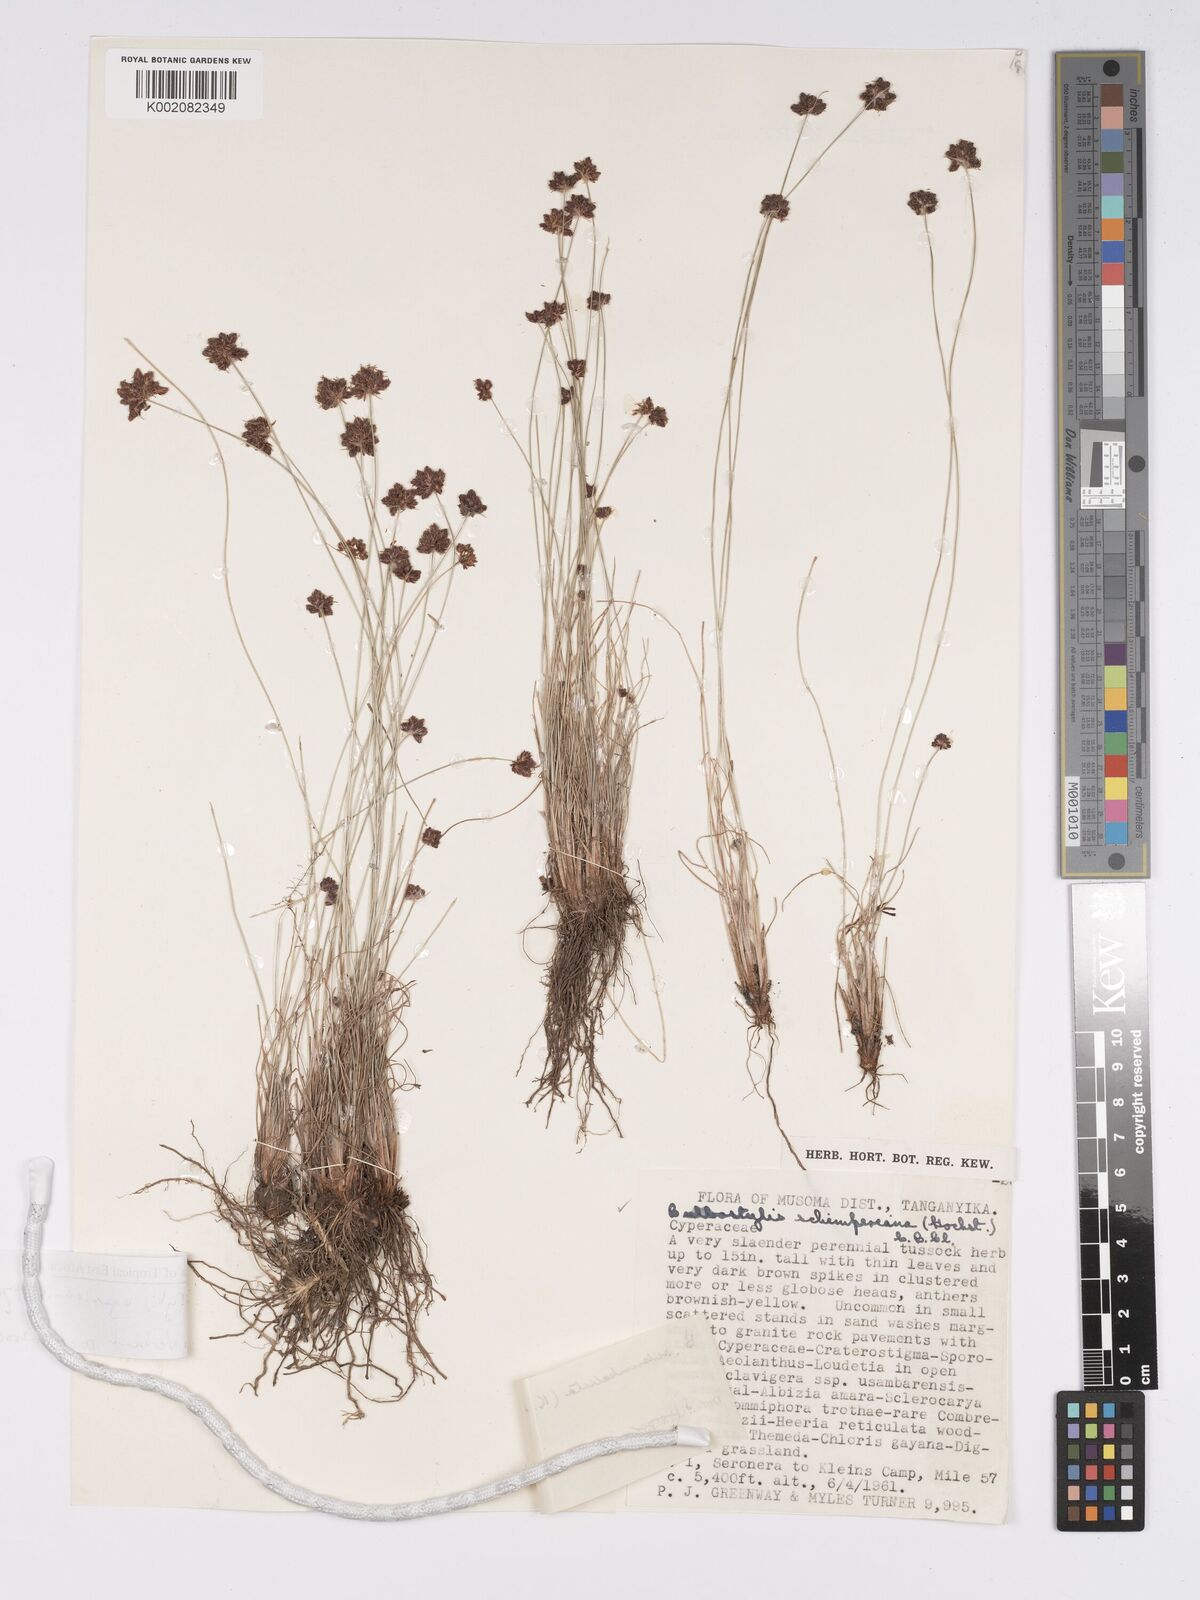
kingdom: Plantae
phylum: Tracheophyta
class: Liliopsida
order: Poales
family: Cyperaceae
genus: Bulbostylis
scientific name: Bulbostylis ugandensis
